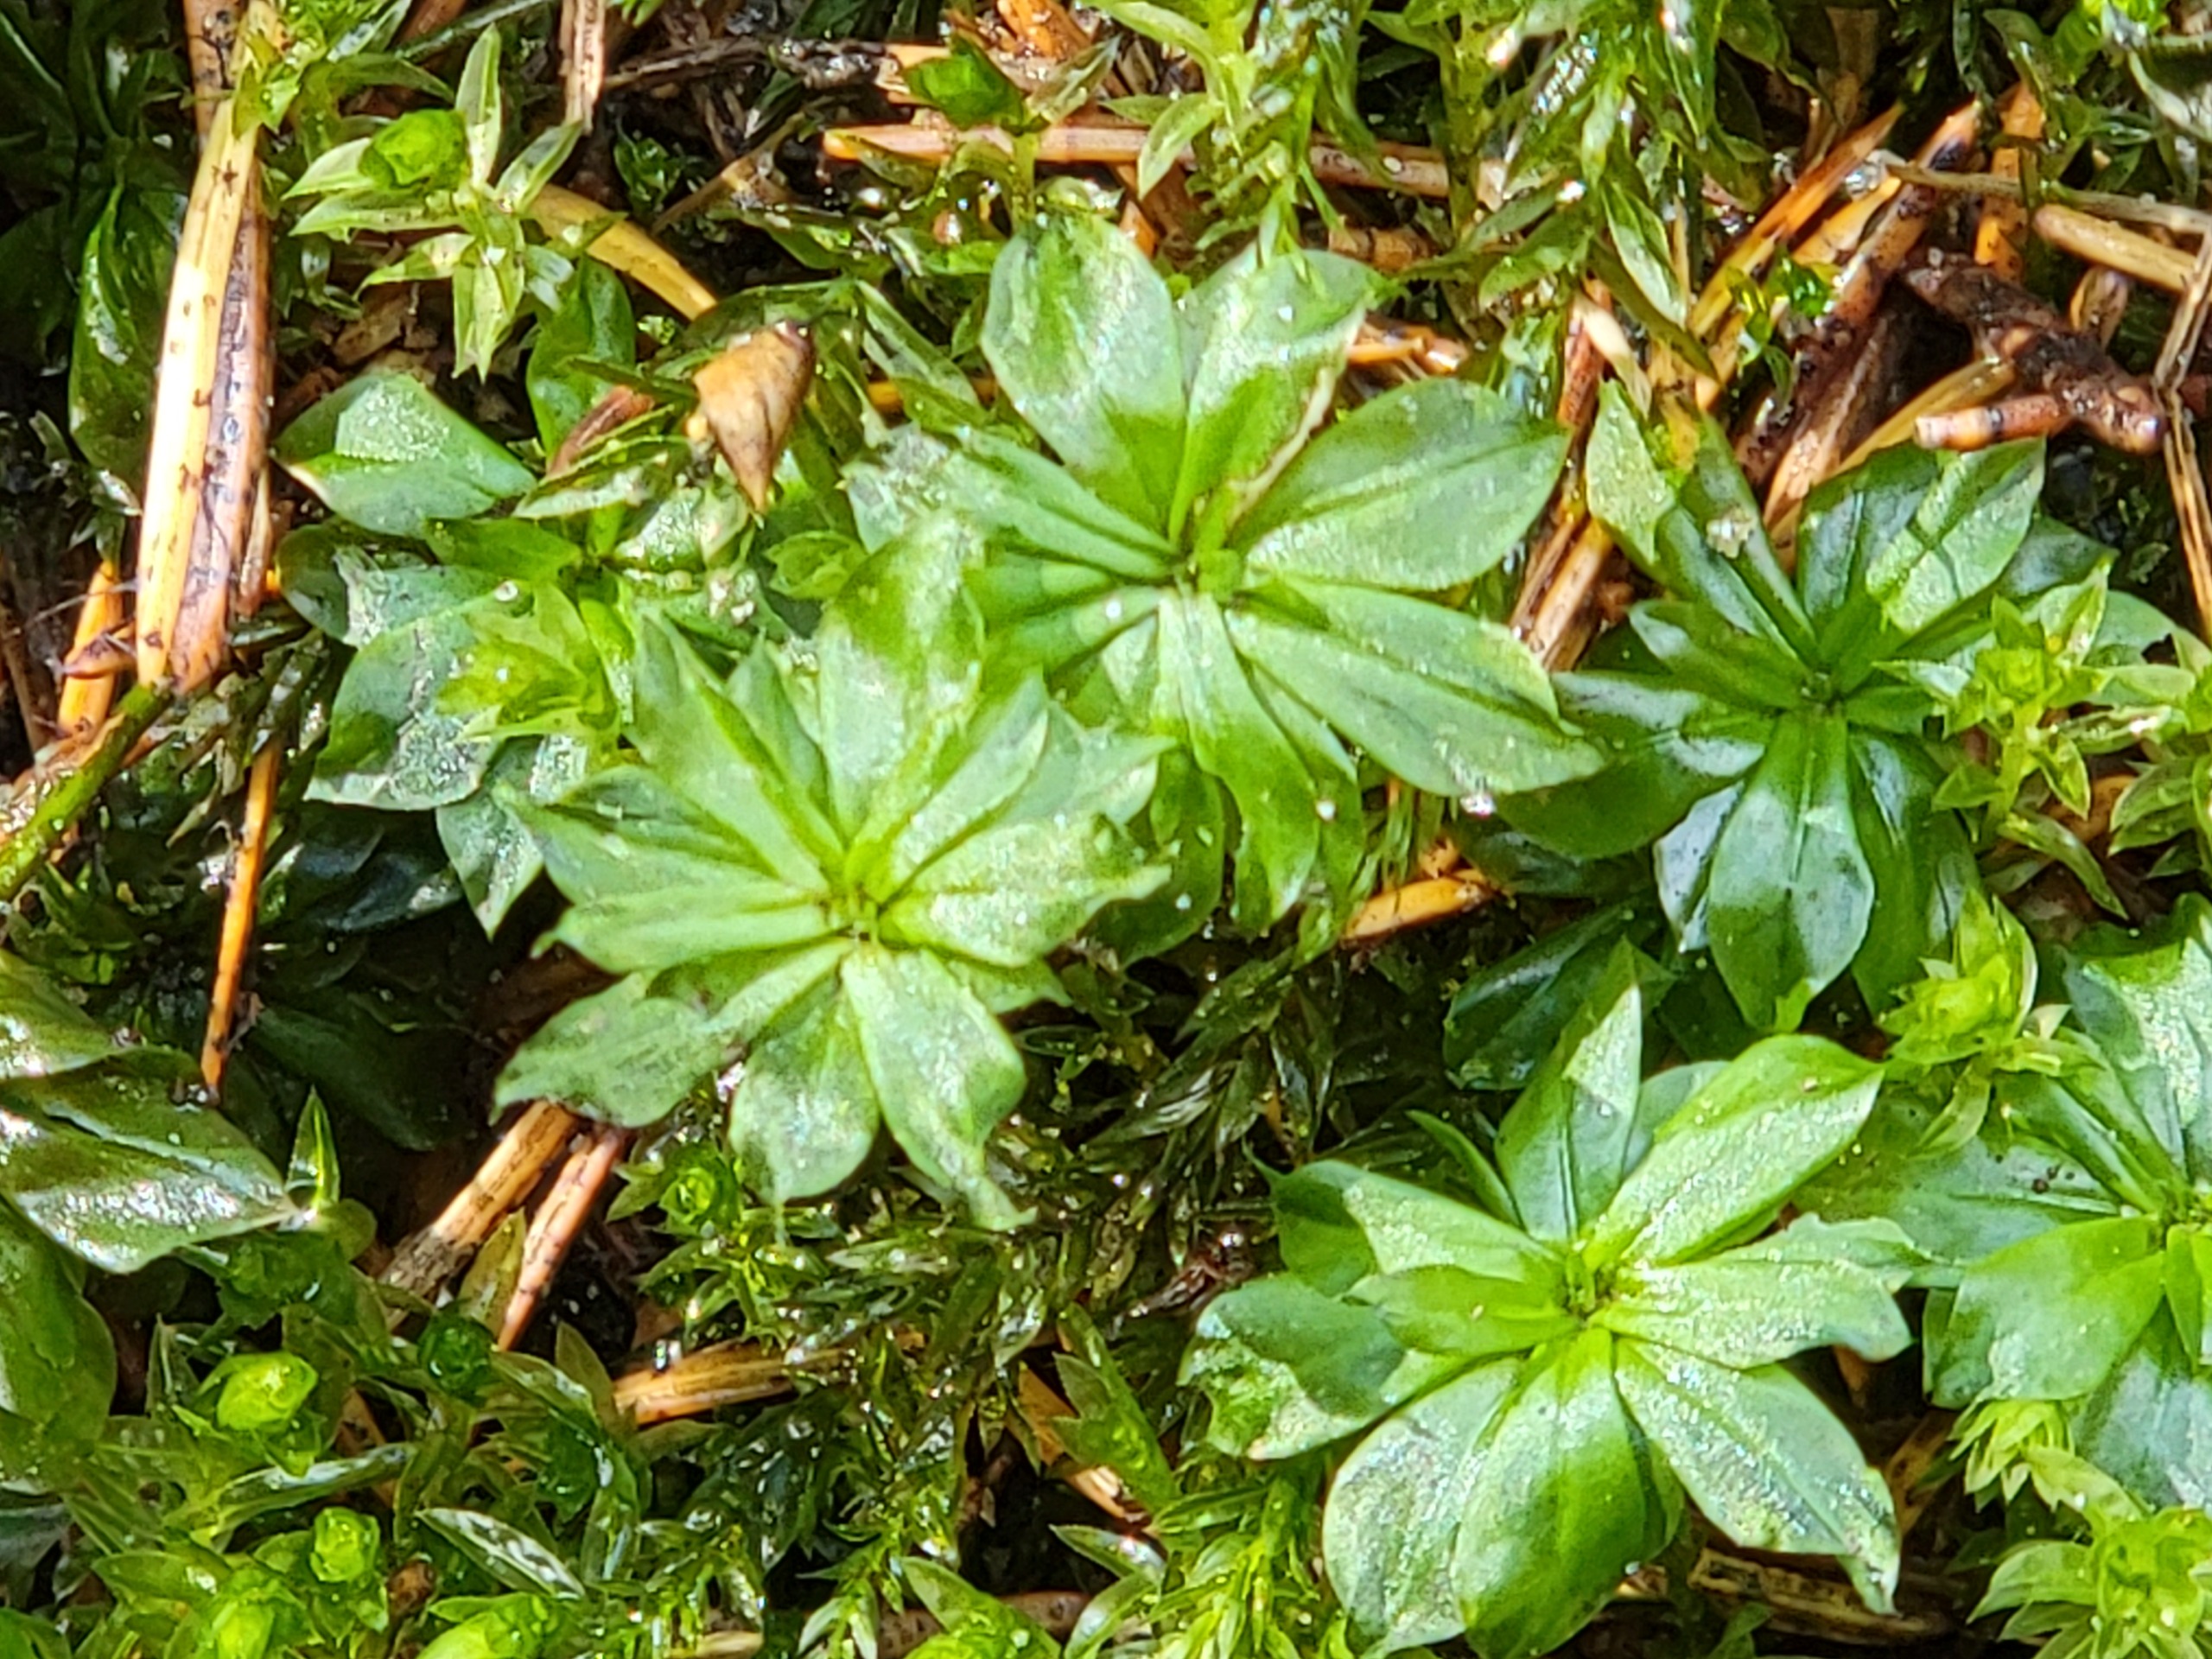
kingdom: Plantae
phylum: Bryophyta
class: Bryopsida
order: Bryales
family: Bryaceae
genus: Rhodobryum
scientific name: Rhodobryum roseum
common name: Stor rosetmos
